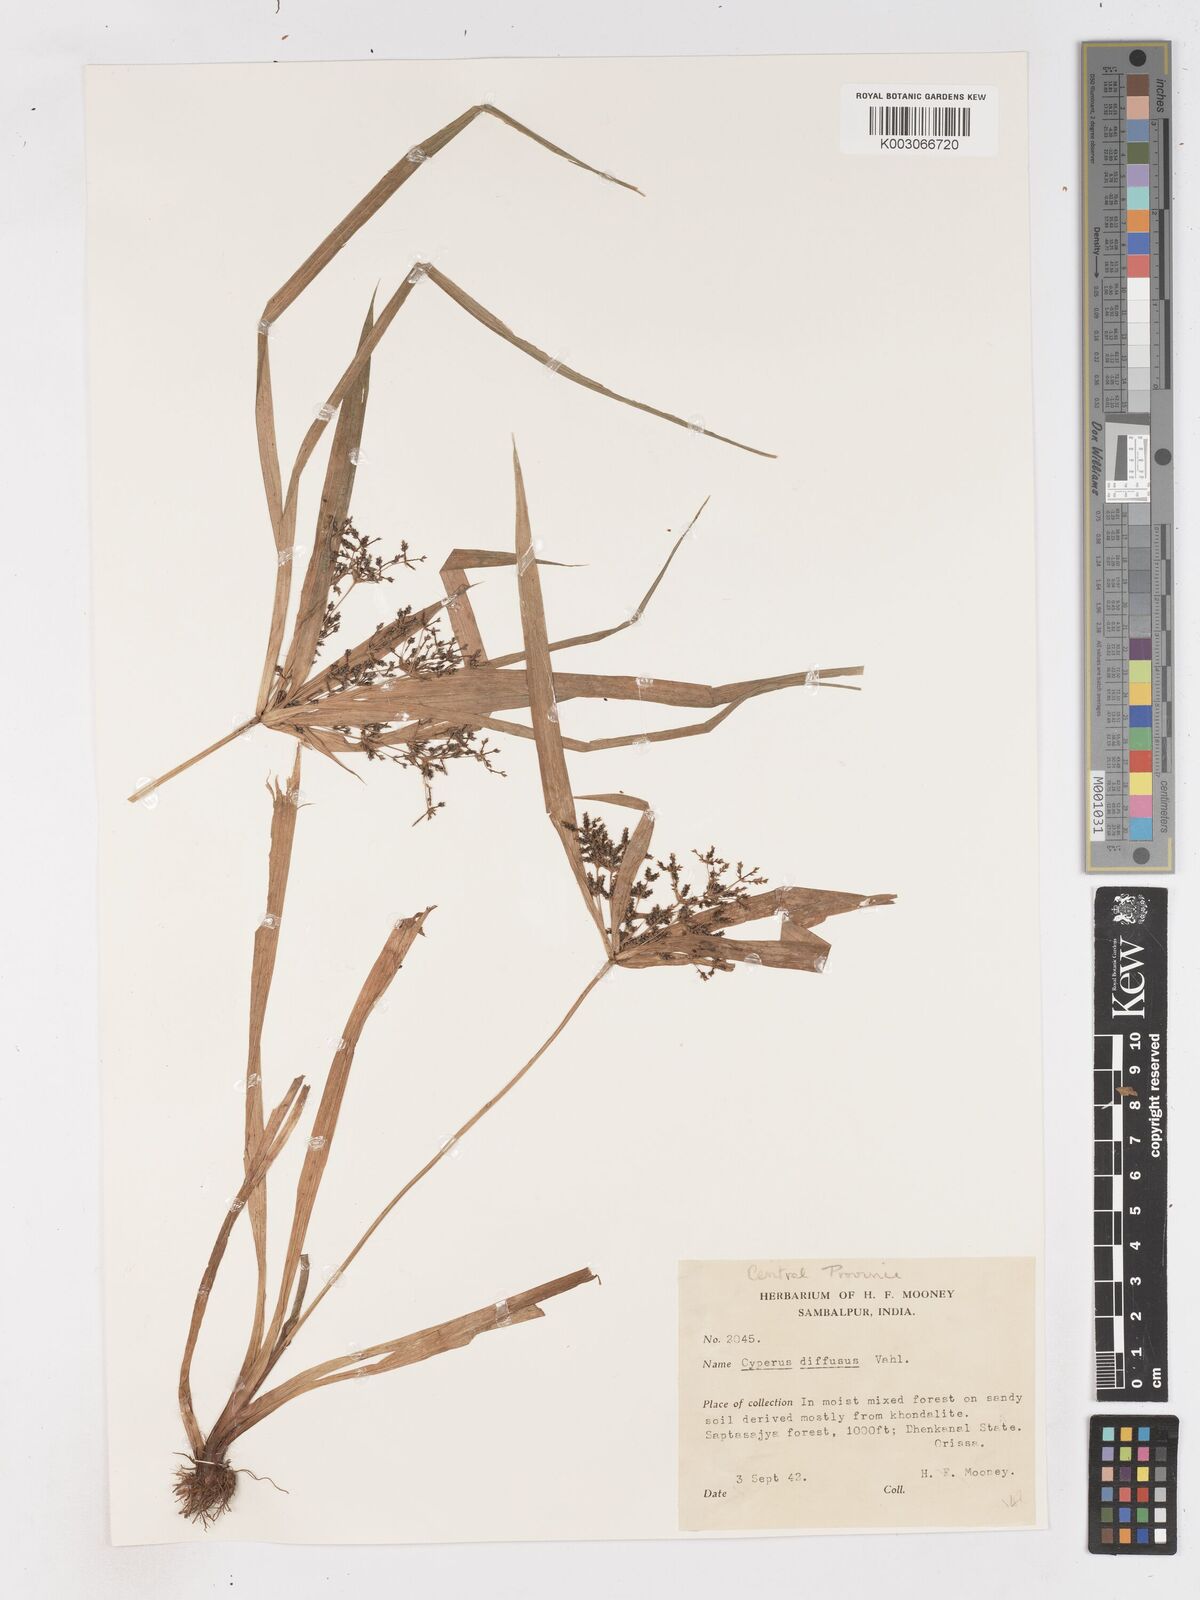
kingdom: Plantae
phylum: Tracheophyta
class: Liliopsida
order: Poales
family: Cyperaceae
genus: Cyperus
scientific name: Cyperus diffusus
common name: Dwarf umbrella grass
